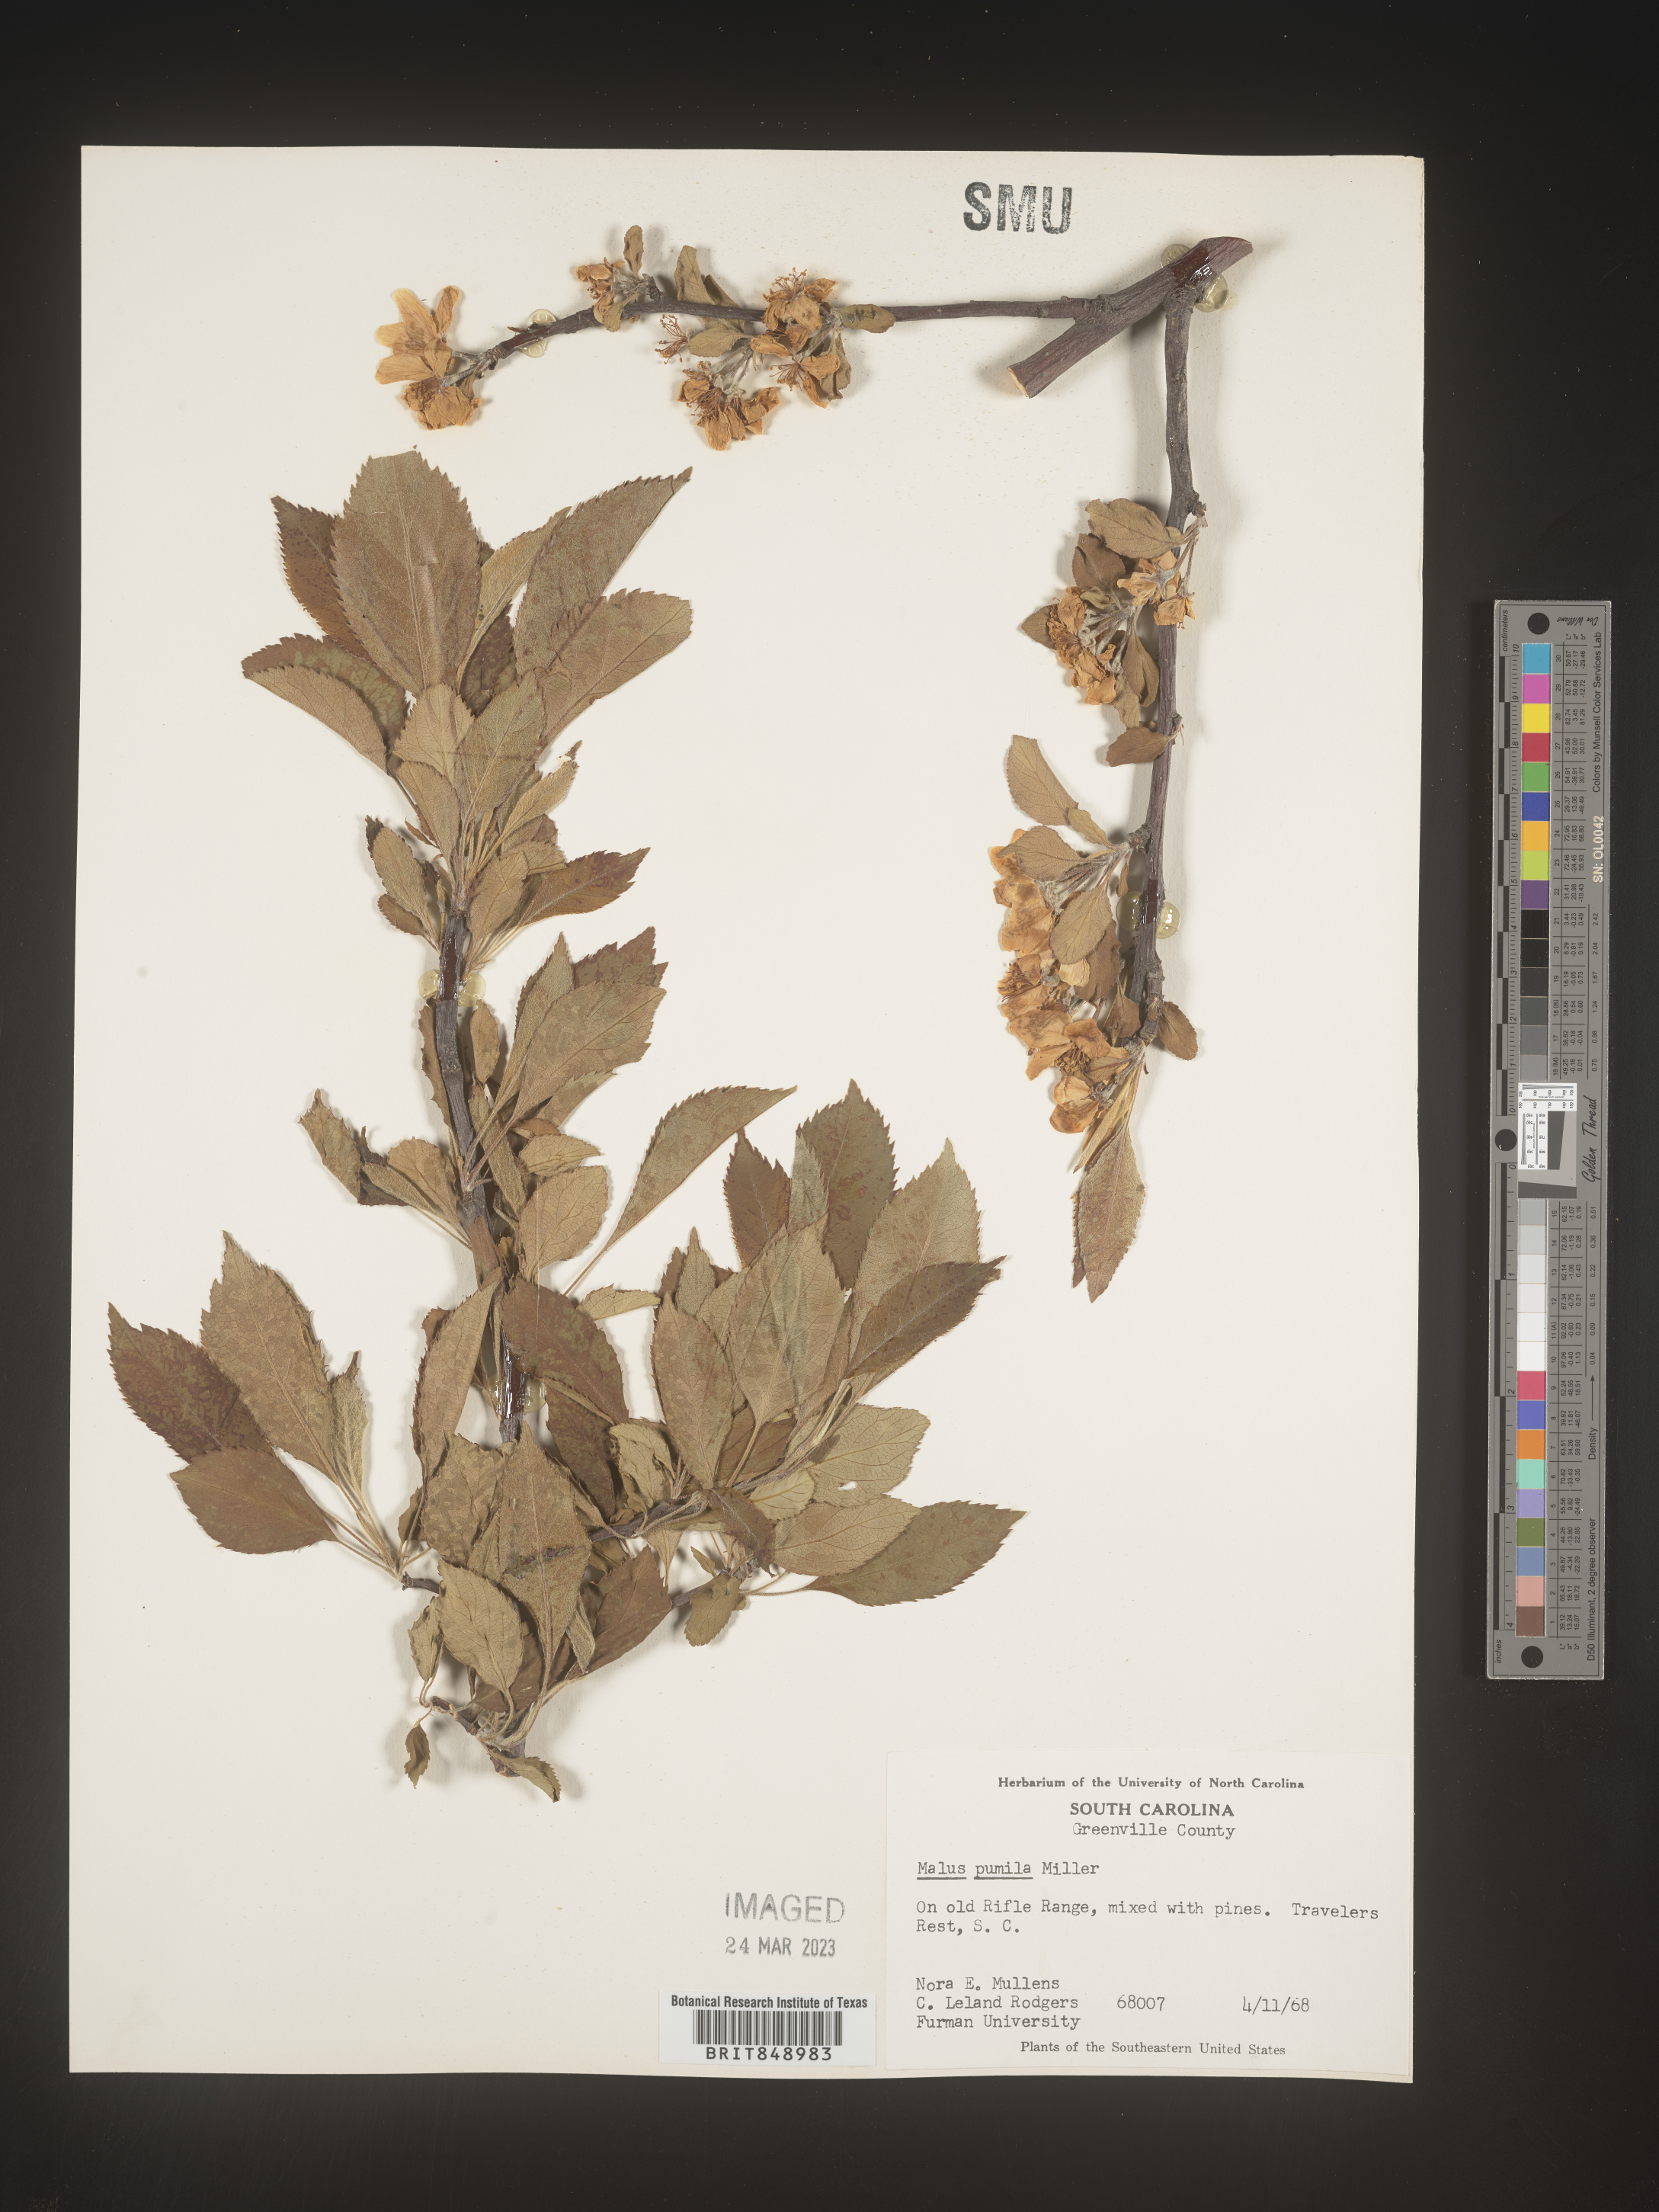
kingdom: Plantae
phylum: Tracheophyta
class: Magnoliopsida
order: Rosales
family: Rosaceae
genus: Malus
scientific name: Malus
